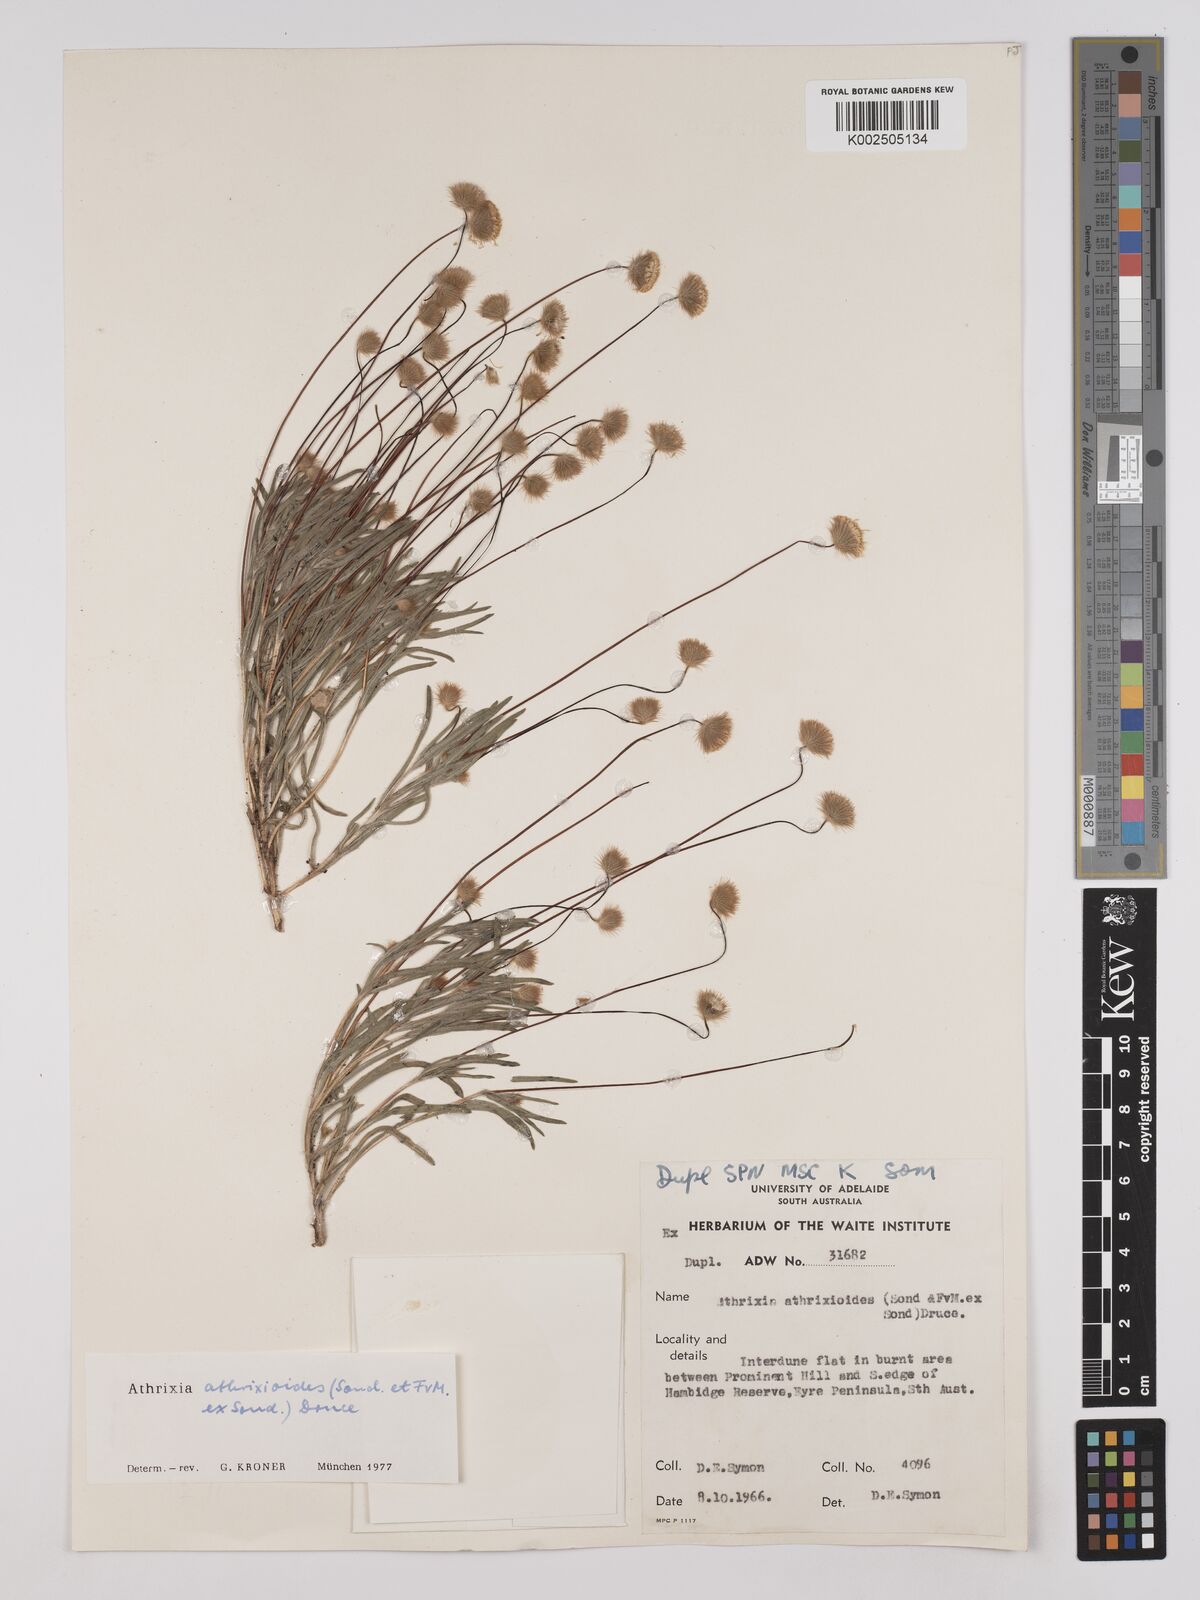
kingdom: Plantae
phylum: Tracheophyta
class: Magnoliopsida
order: Asterales
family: Asteraceae
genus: Asteridea
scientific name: Asteridea athrixioides
